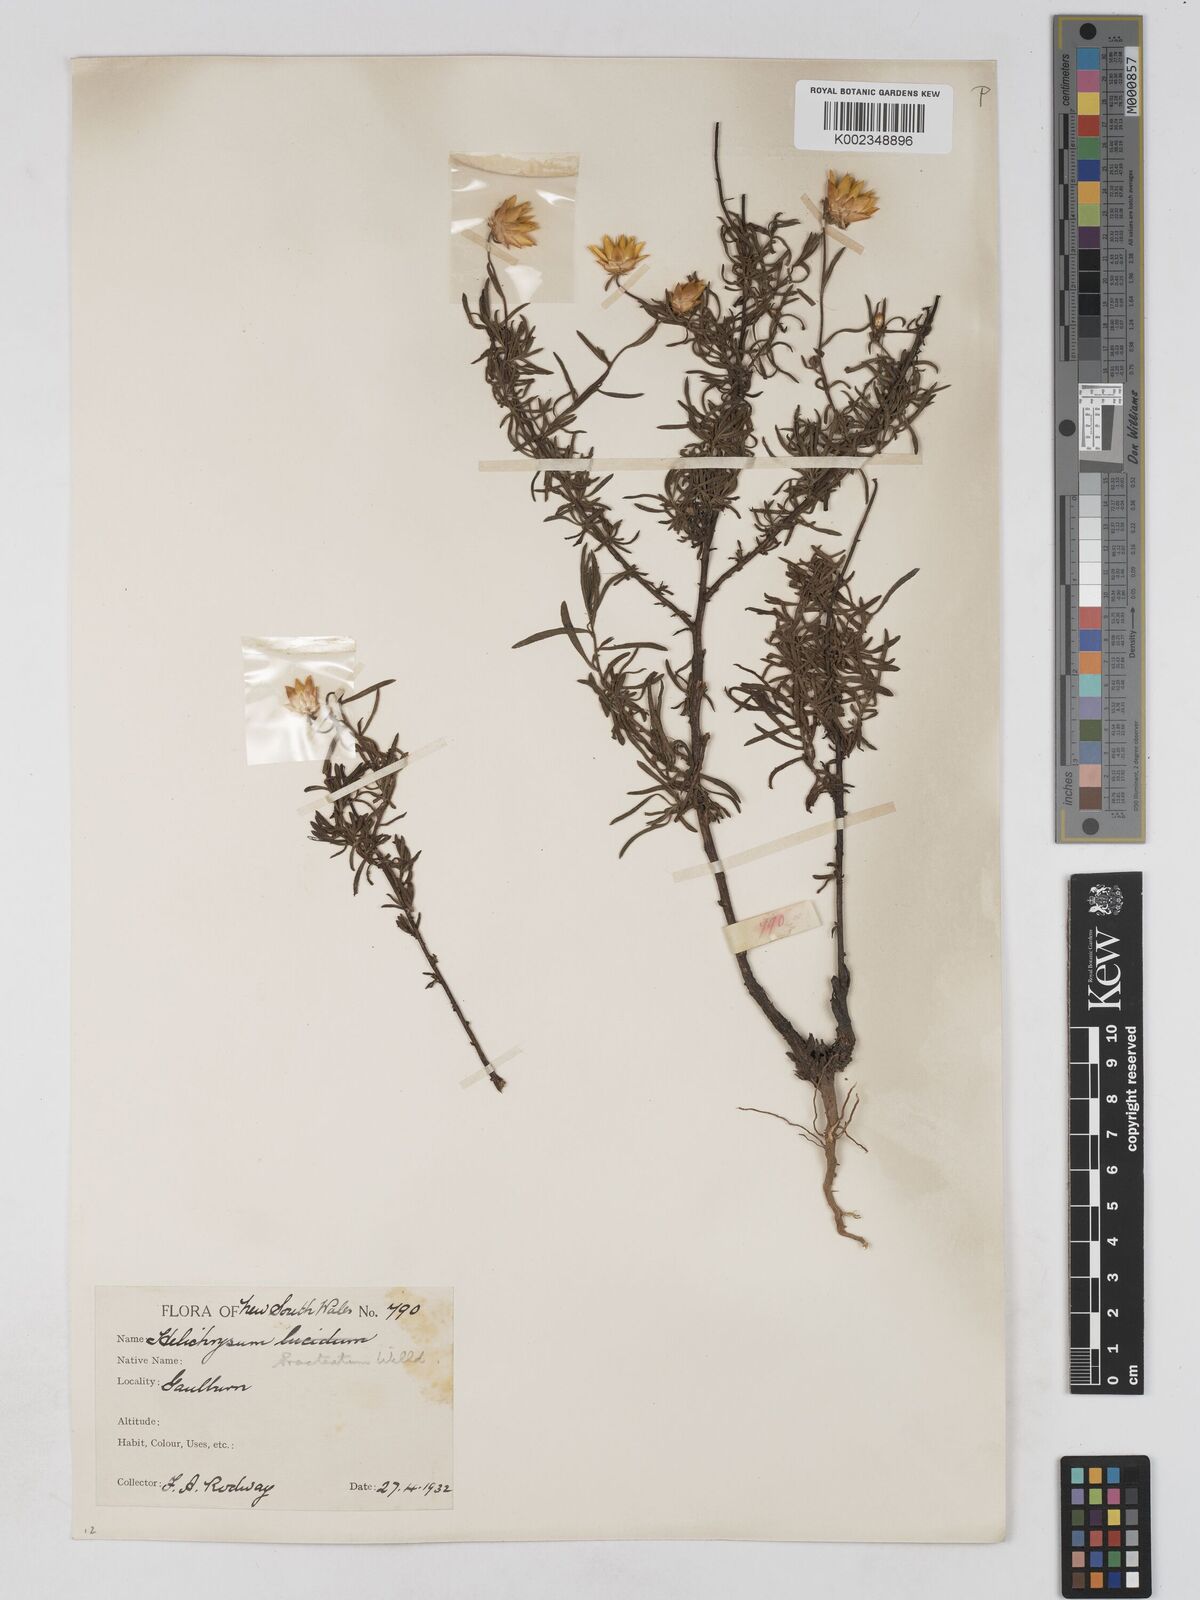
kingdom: Plantae
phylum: Tracheophyta
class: Magnoliopsida
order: Asterales
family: Asteraceae
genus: Xerochrysum
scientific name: Xerochrysum bracteatum
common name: Bracted strawflower
